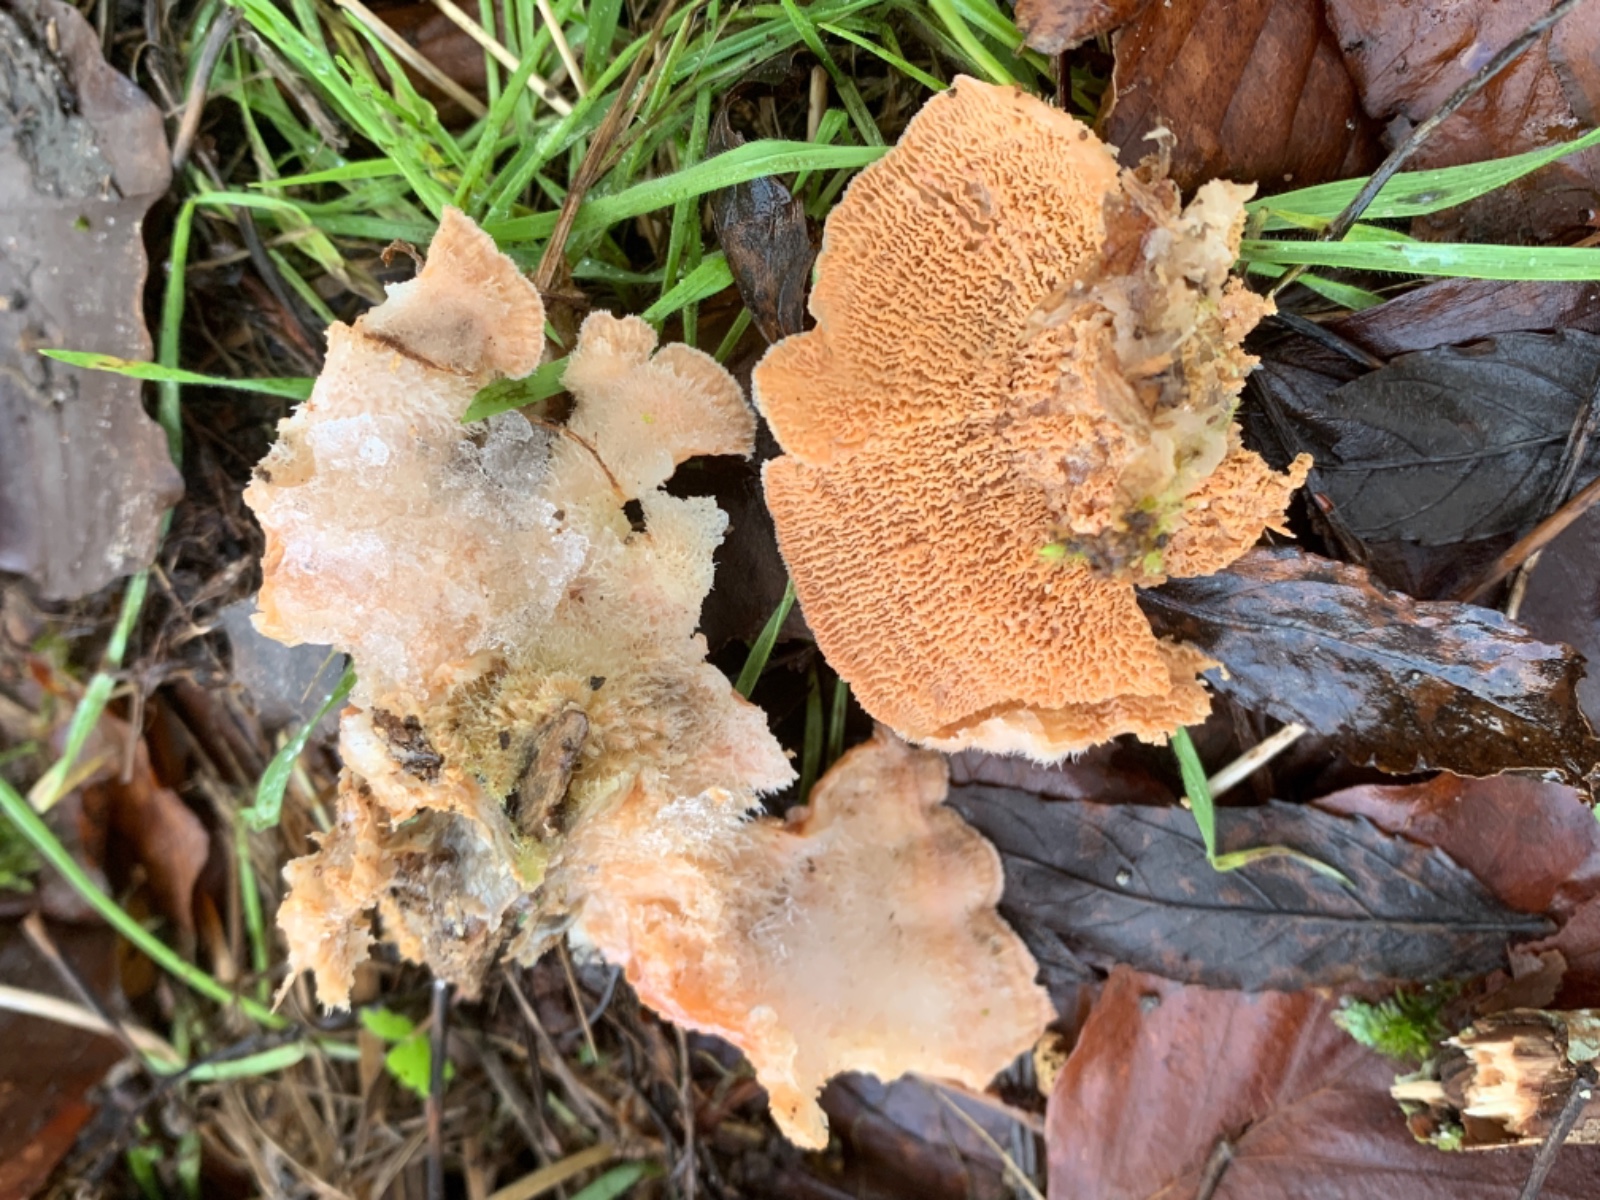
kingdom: Fungi
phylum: Basidiomycota
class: Agaricomycetes
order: Polyporales
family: Meruliaceae
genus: Phlebia
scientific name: Phlebia tremellosa
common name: bævrende åresvamp
